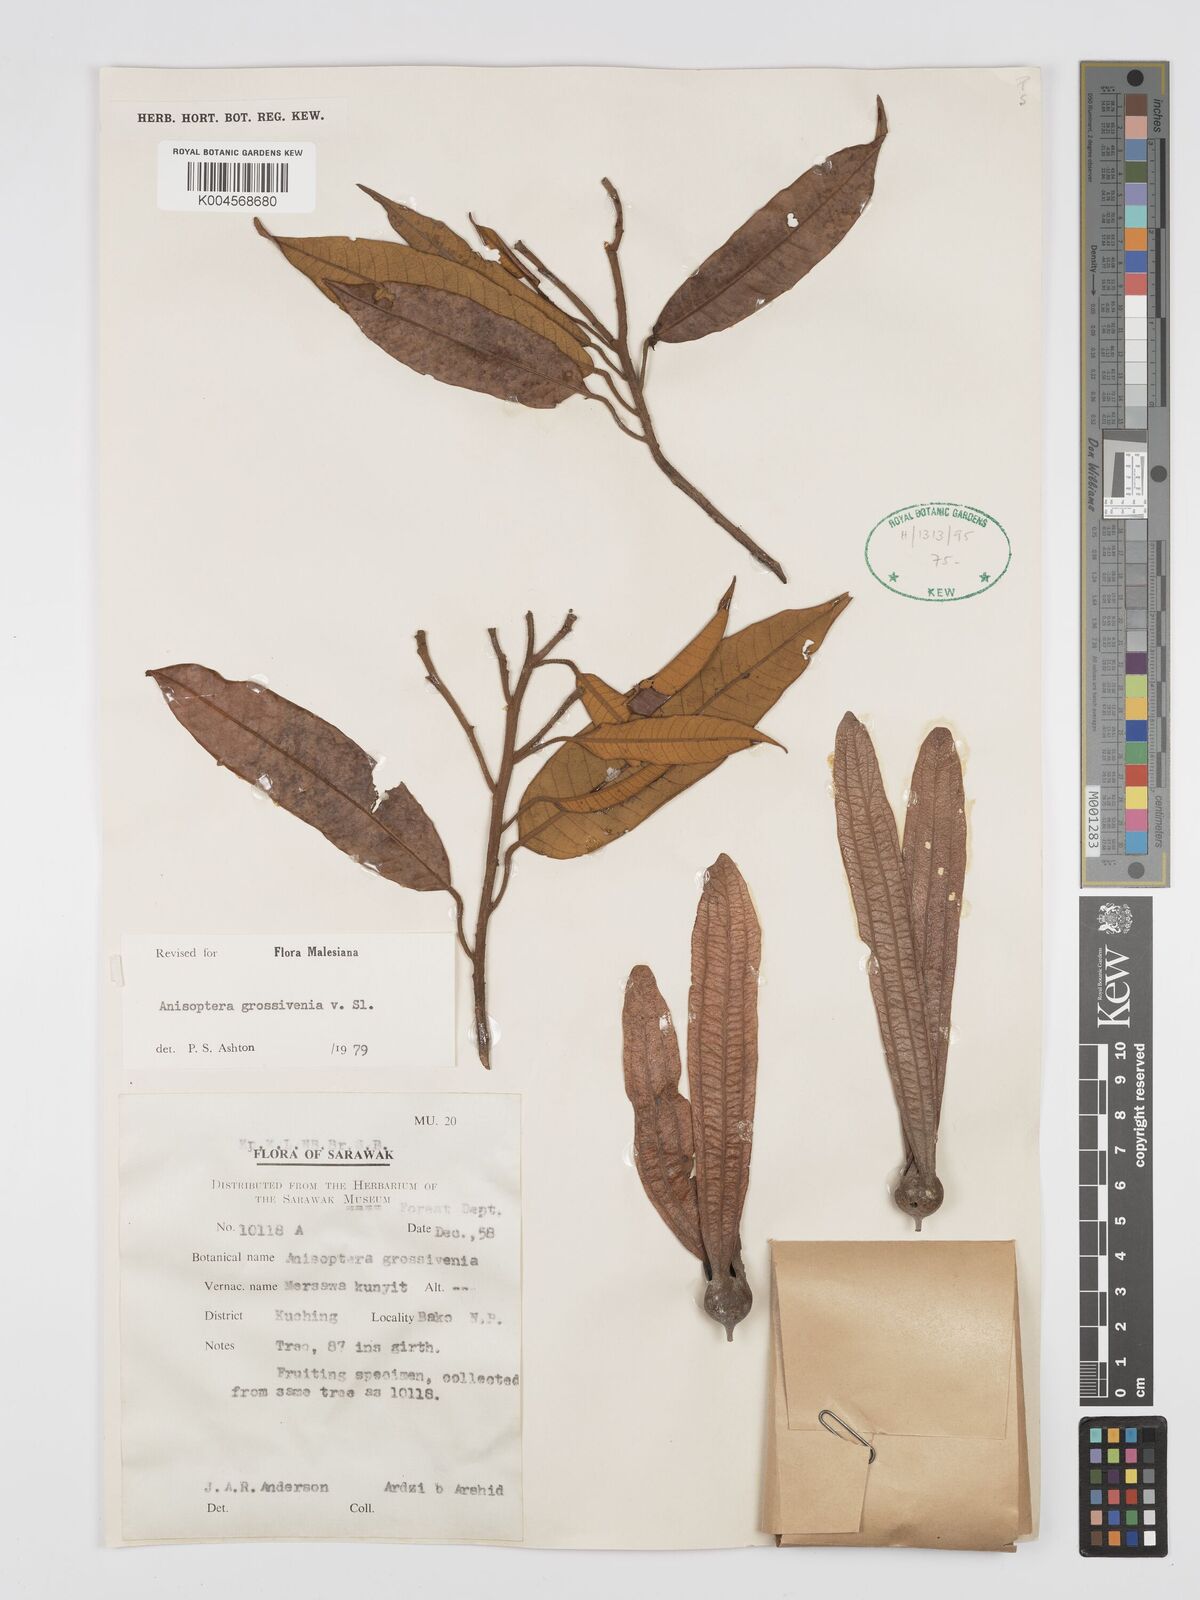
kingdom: Plantae
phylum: Tracheophyta
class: Magnoliopsida
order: Malvales
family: Dipterocarpaceae
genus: Anisoptera
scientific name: Anisoptera grossivenia
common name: Krabak
